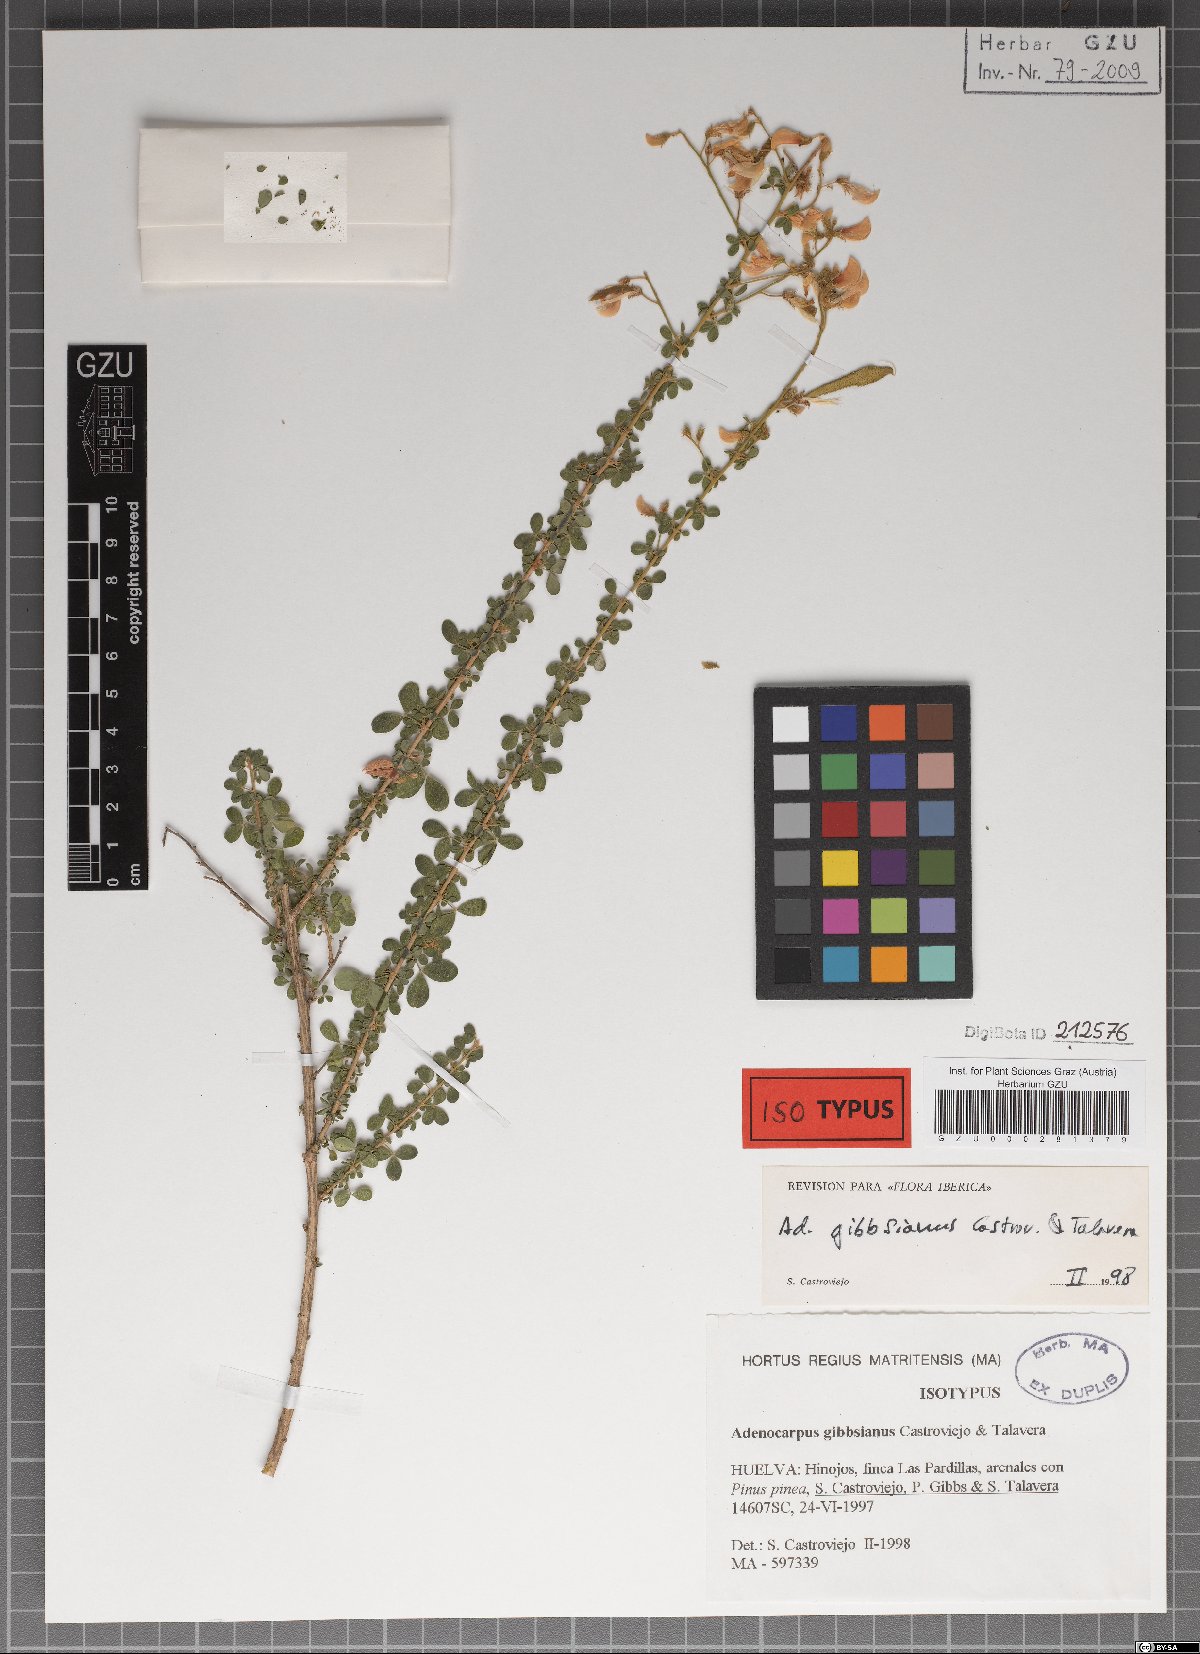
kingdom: Plantae
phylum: Tracheophyta
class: Magnoliopsida
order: Fabales
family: Fabaceae
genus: Adenocarpus
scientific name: Adenocarpus complicatus
